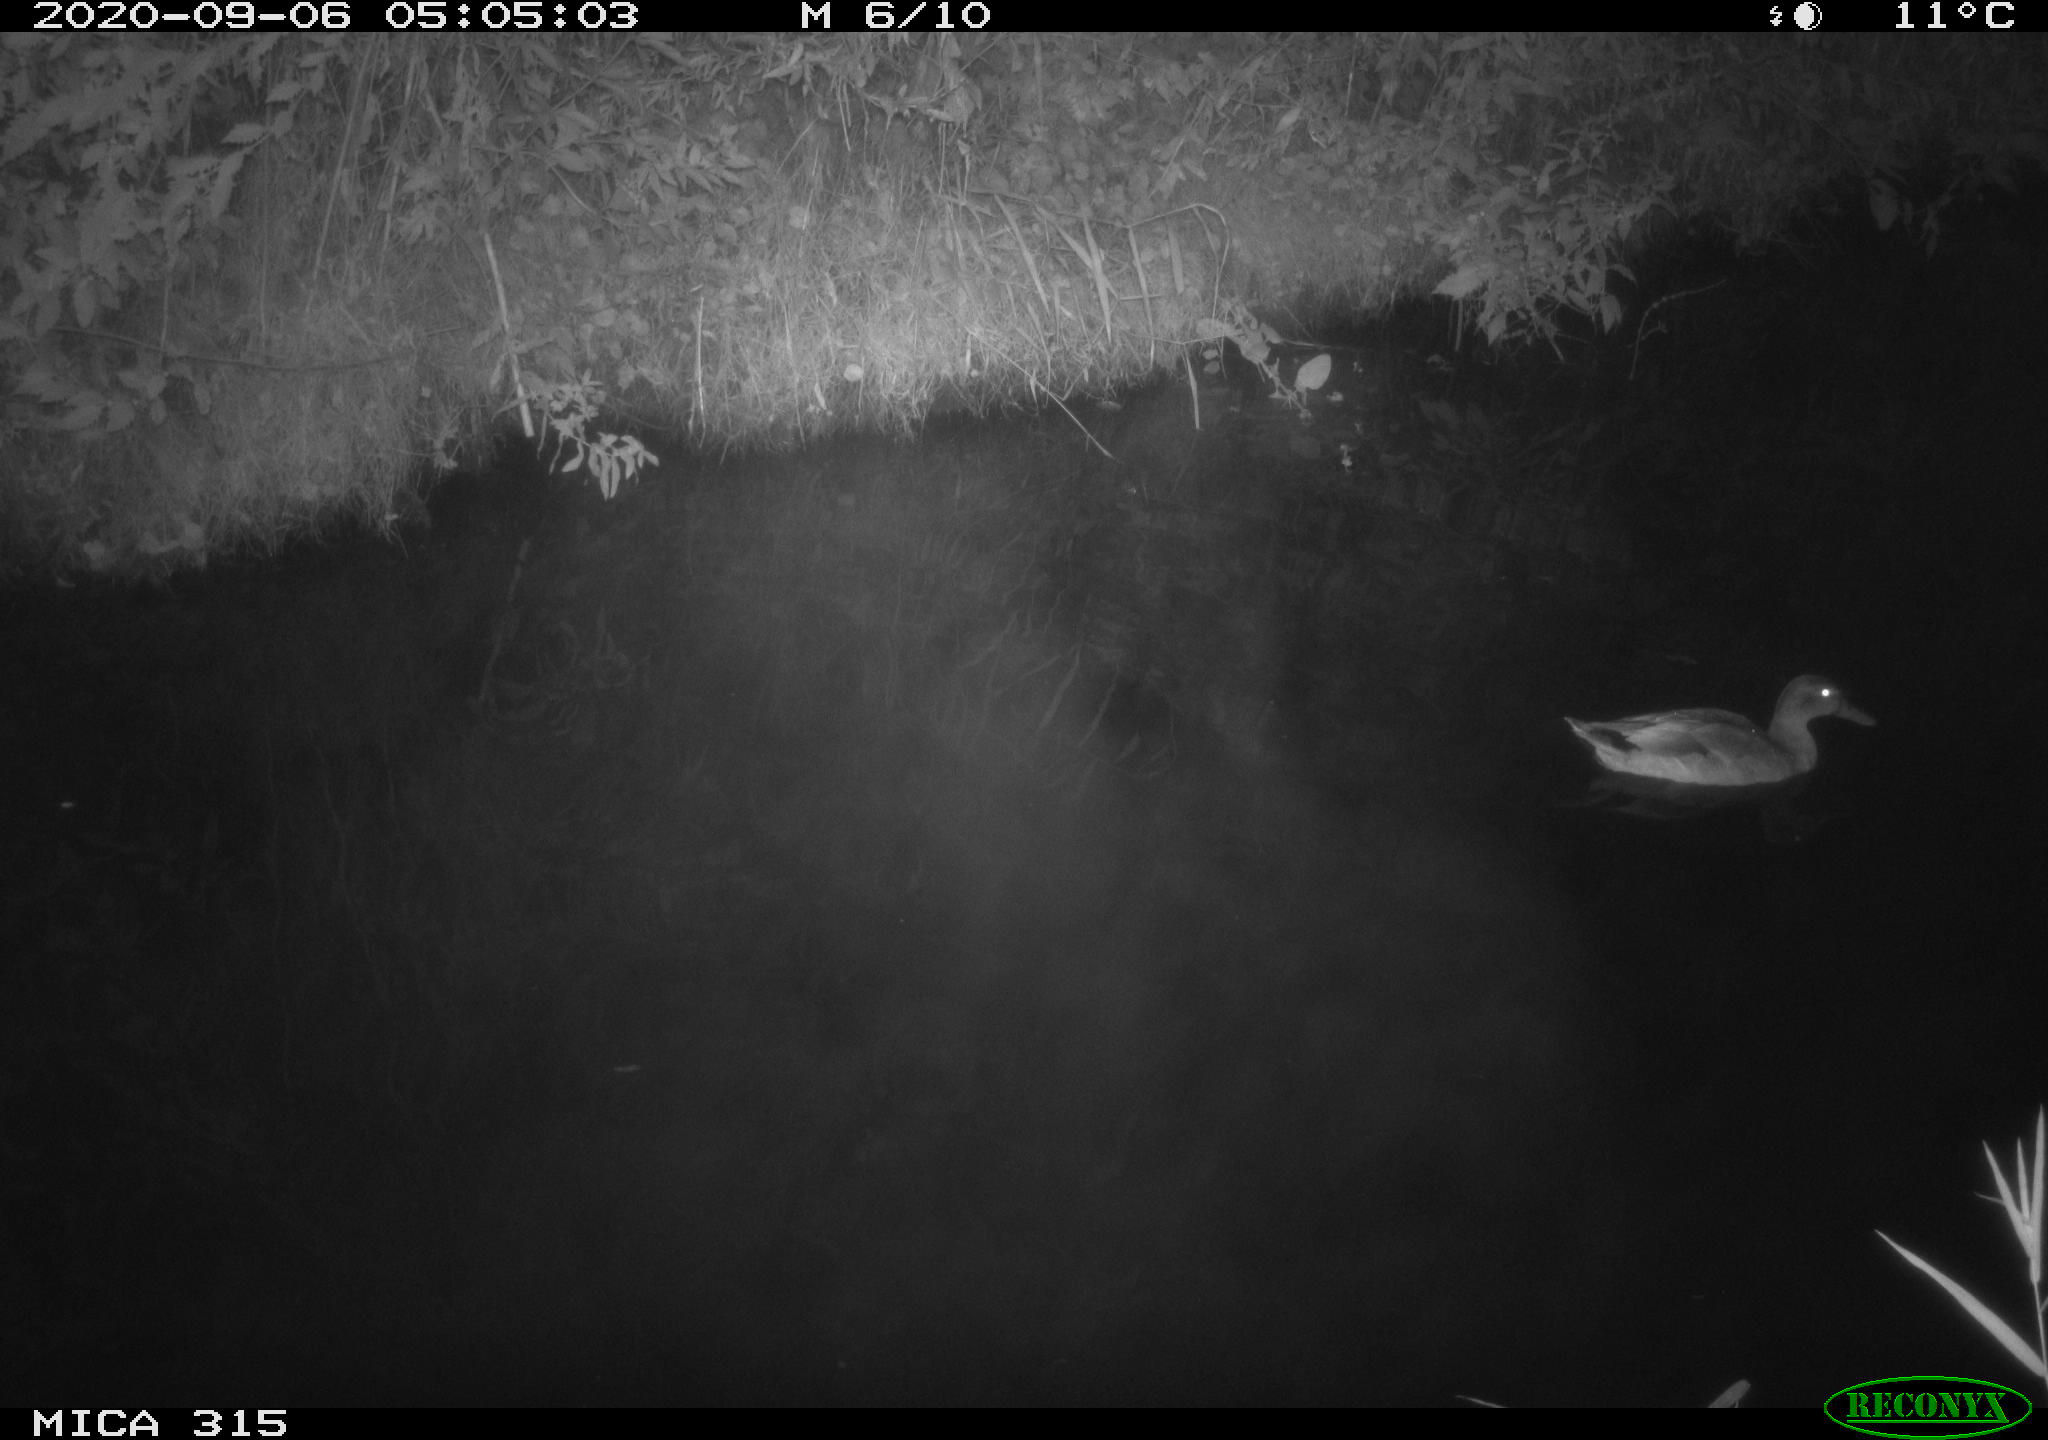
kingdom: Animalia
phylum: Chordata
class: Aves
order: Anseriformes
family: Anatidae
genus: Anas
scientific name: Anas platyrhynchos
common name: Mallard
